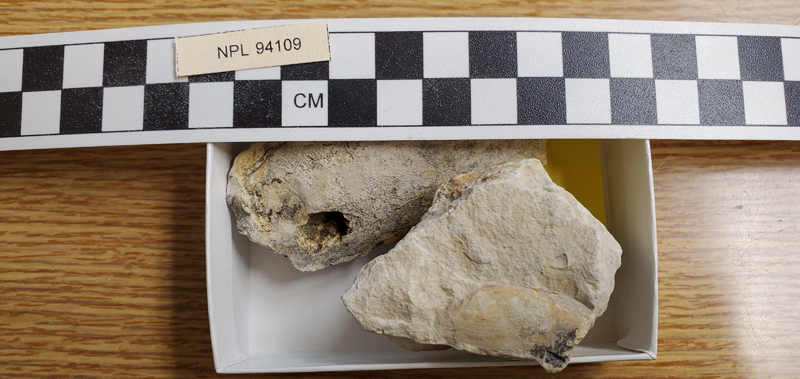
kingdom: Animalia
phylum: Mollusca
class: Bivalvia
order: Cardiida
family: Tellinidae
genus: Linearia
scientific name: Linearia
